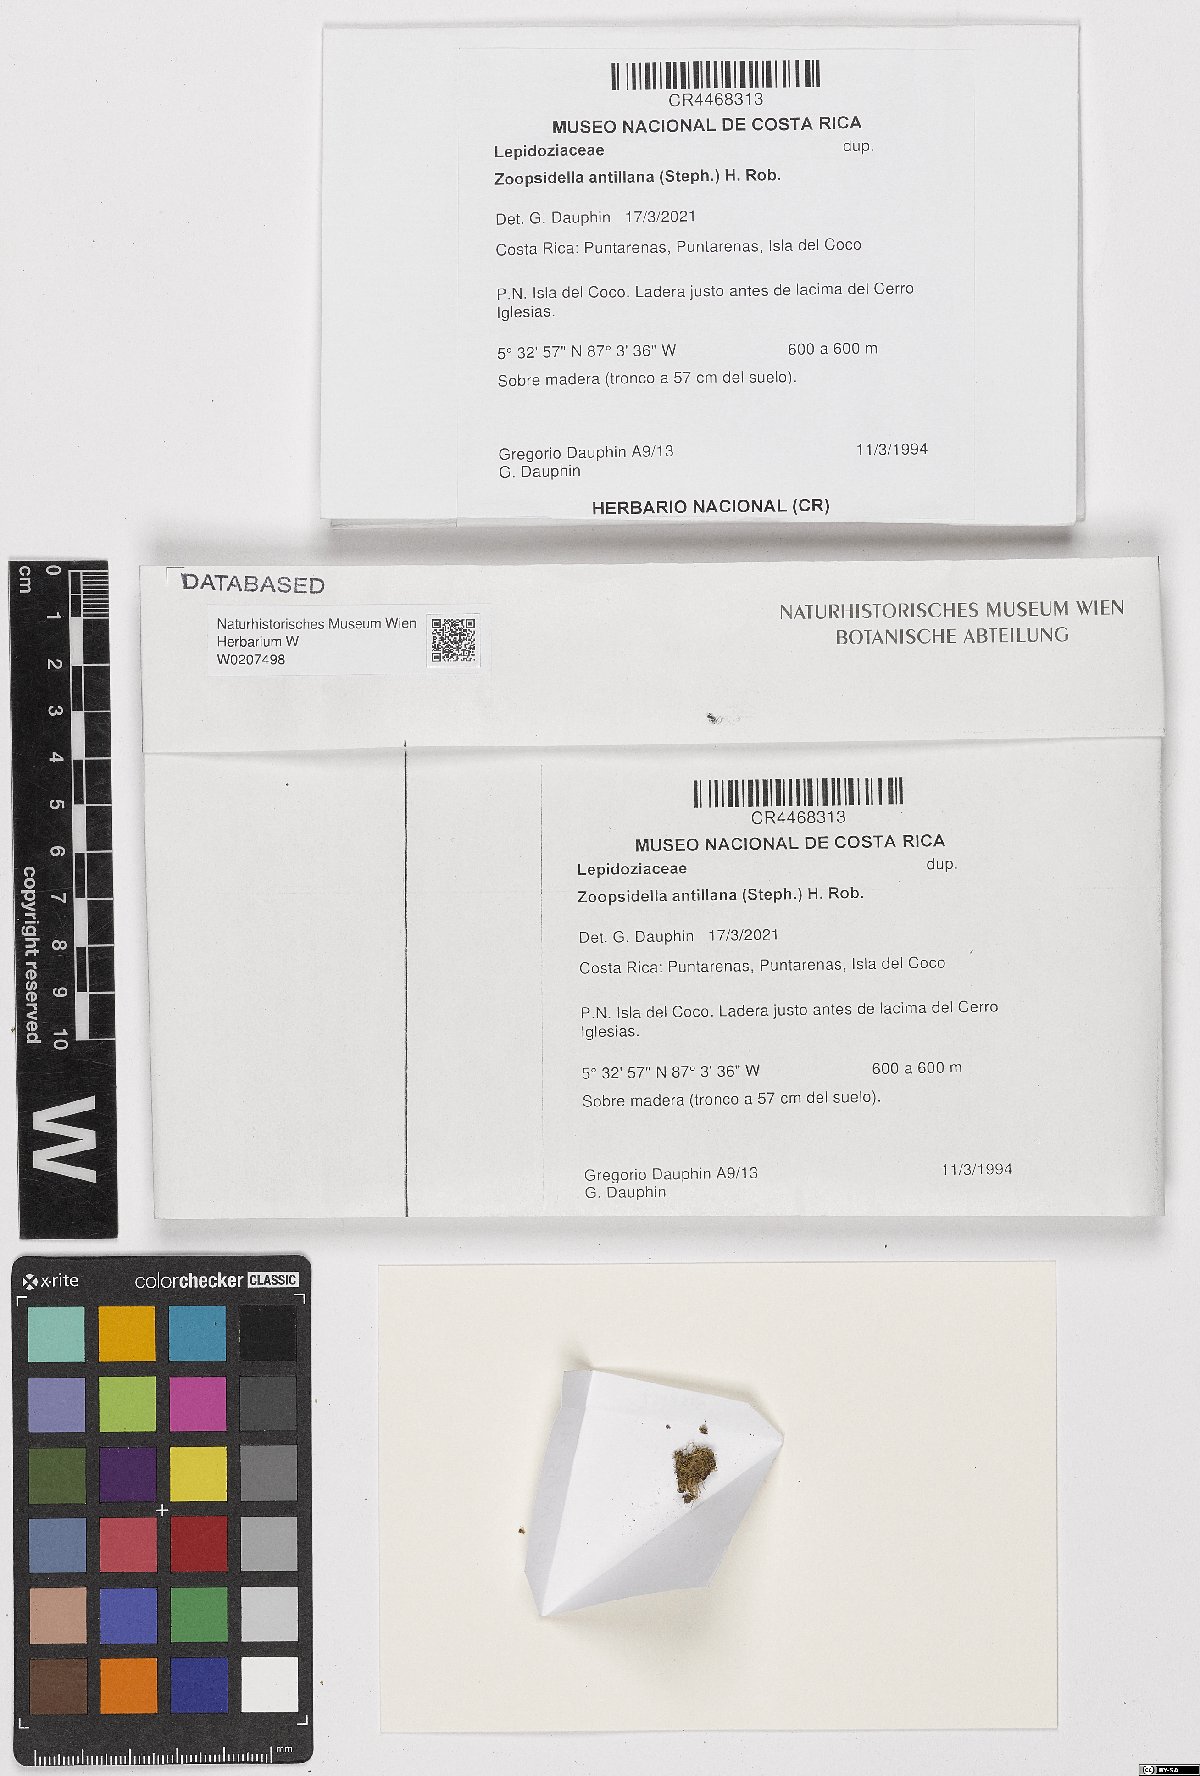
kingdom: Plantae
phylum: Marchantiophyta
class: Jungermanniopsida
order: Jungermanniales
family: Lepidoziaceae
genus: Zoopsidella
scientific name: Zoopsidella antillana
